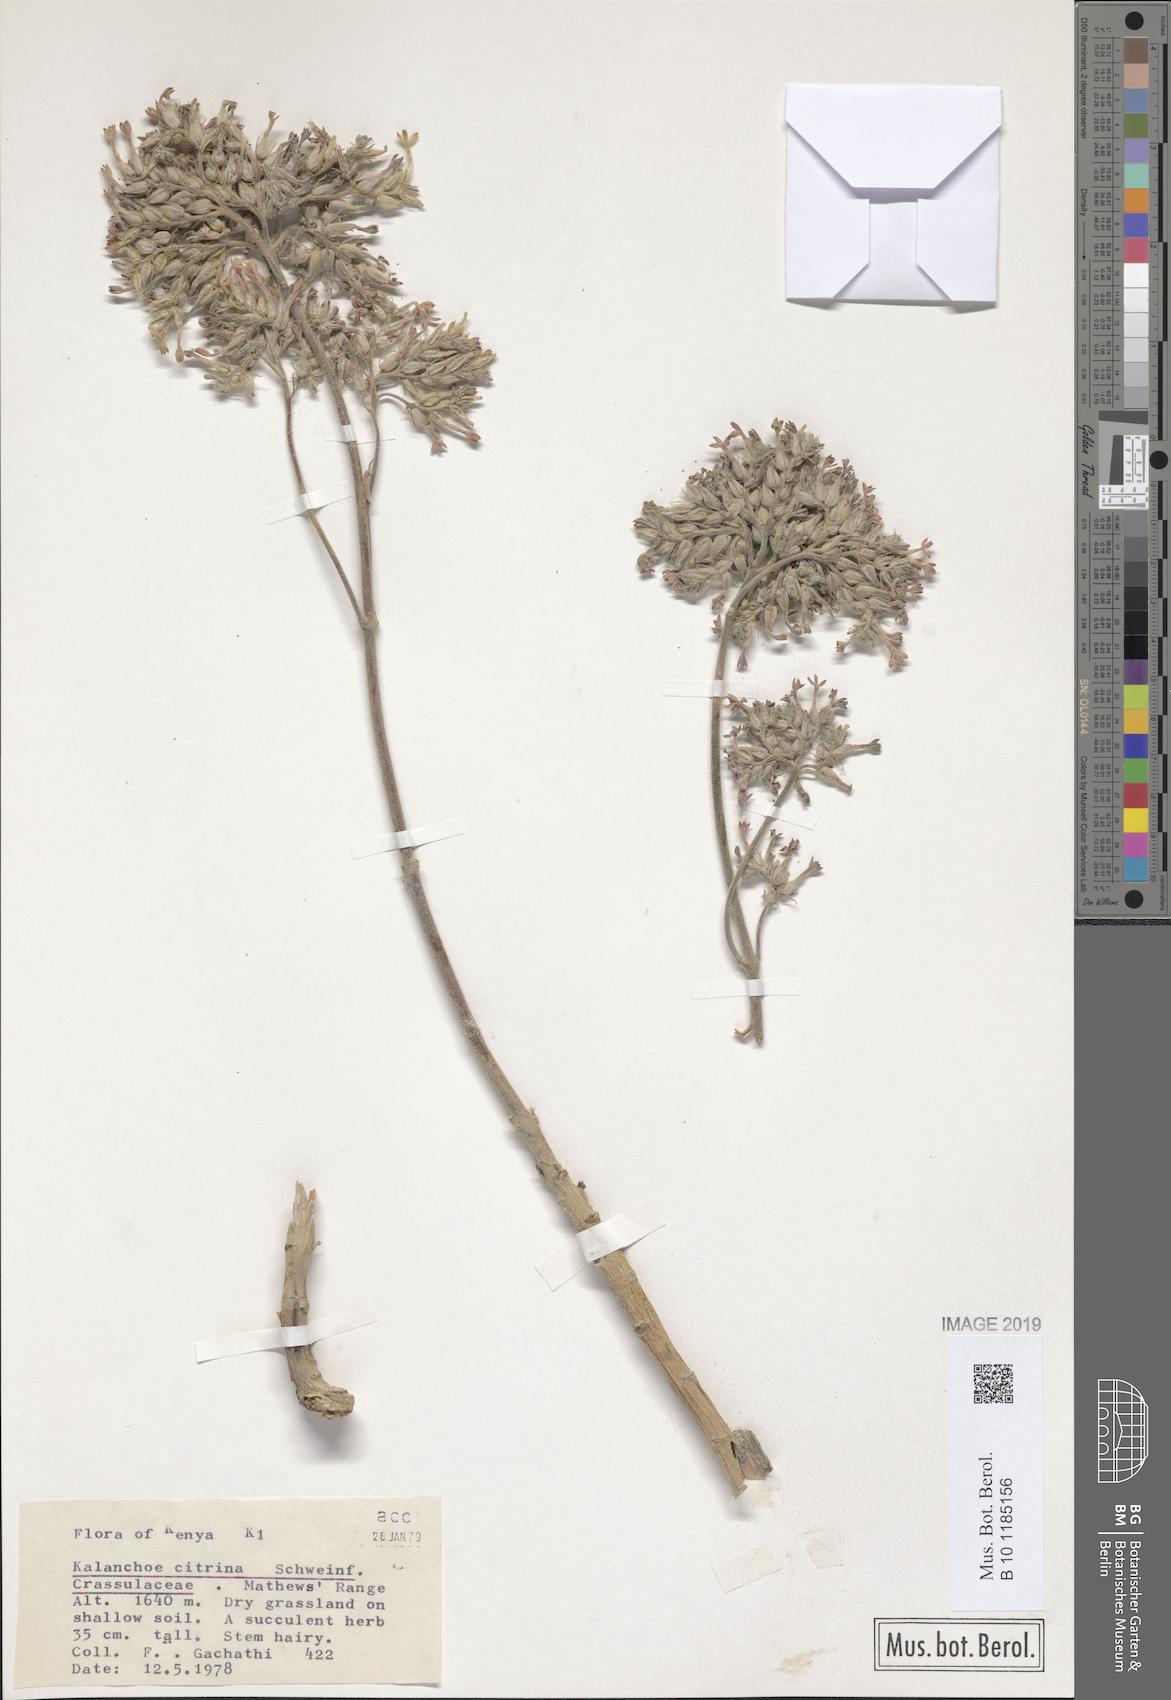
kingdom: Plantae
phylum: Tracheophyta
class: Magnoliopsida
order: Saxifragales
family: Crassulaceae
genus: Kalanchoe
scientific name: Kalanchoe citrina
